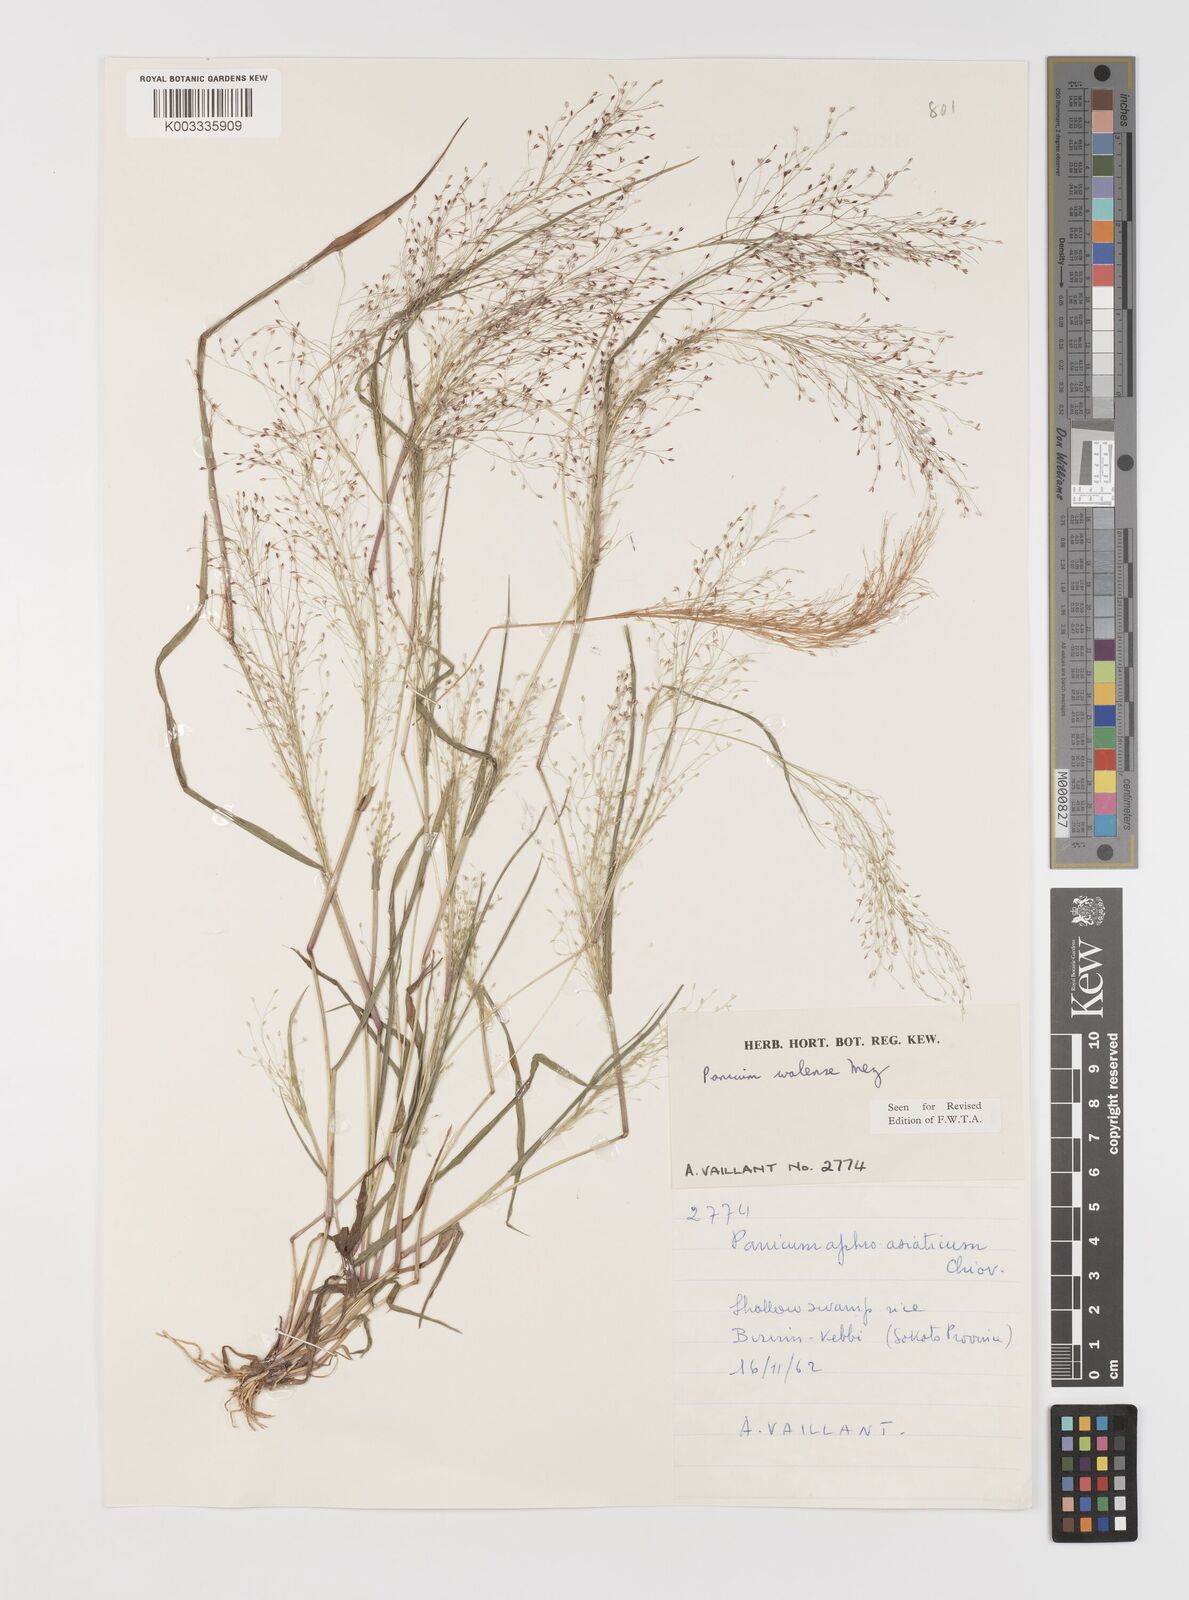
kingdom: Plantae
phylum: Tracheophyta
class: Liliopsida
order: Poales
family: Poaceae
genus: Panicum
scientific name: Panicum humile
